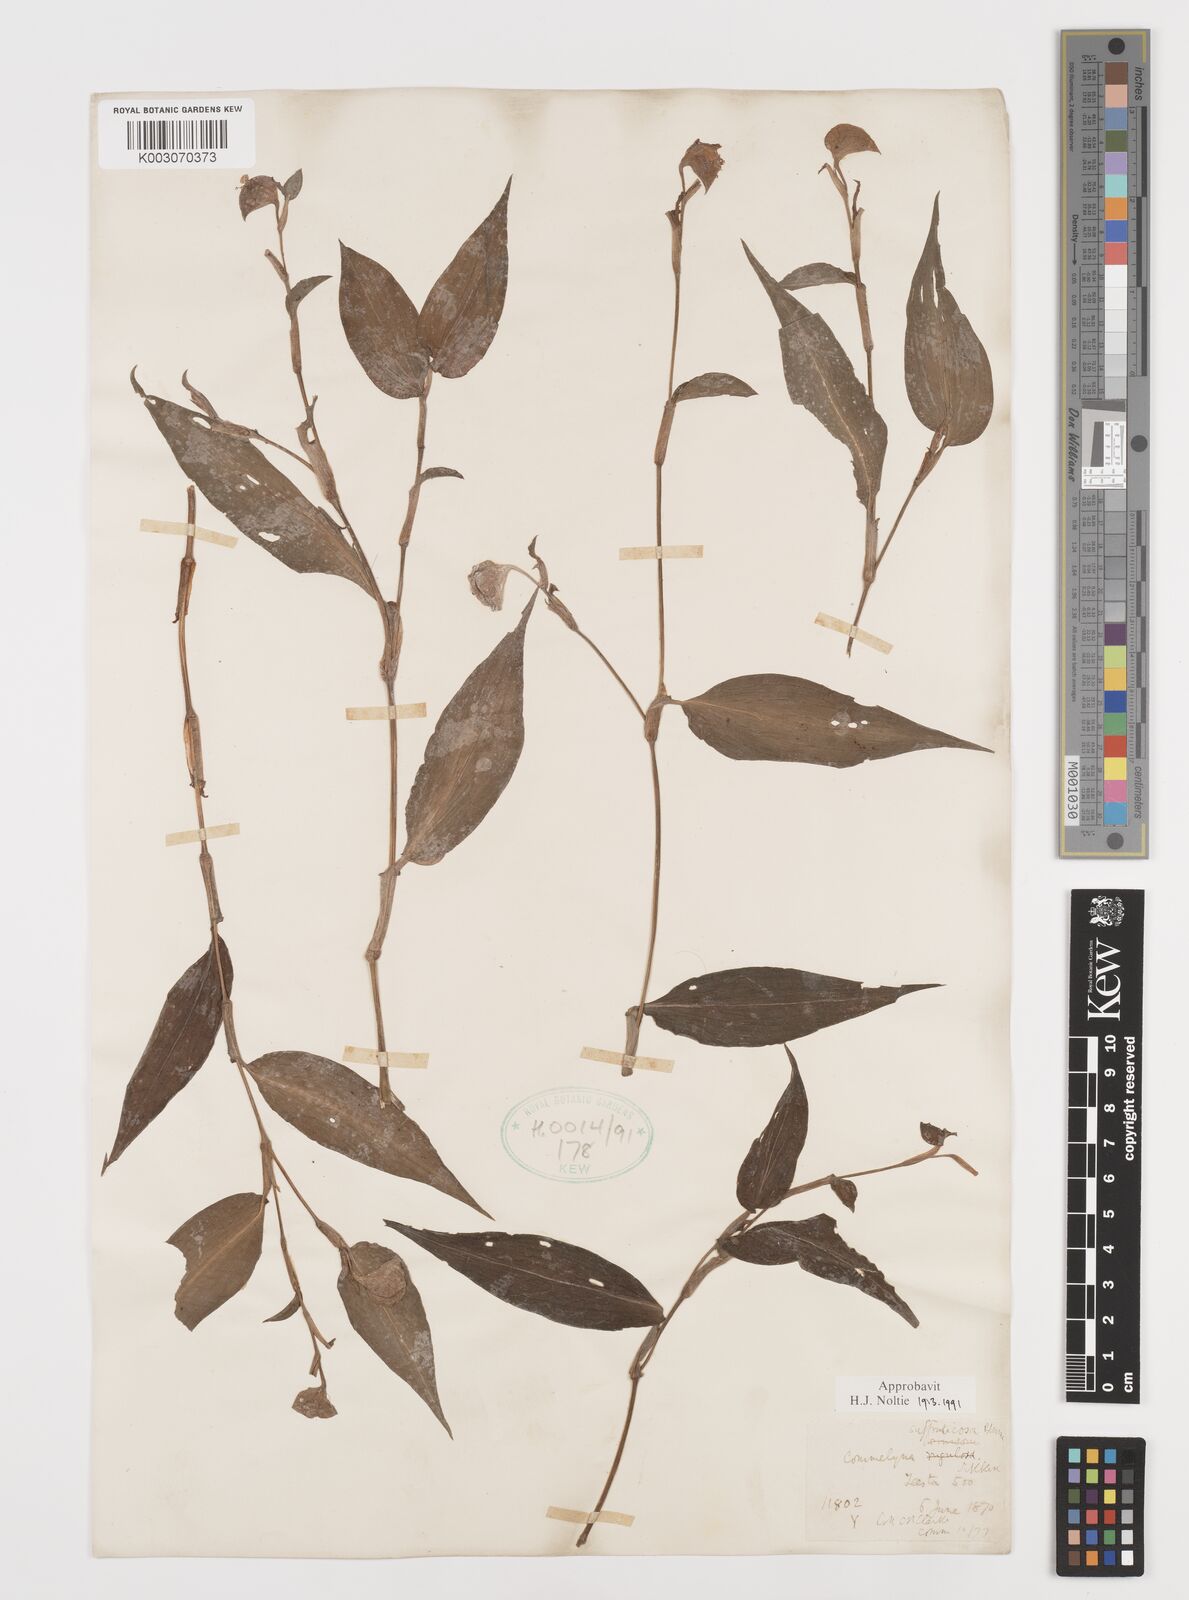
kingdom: Plantae
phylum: Tracheophyta
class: Liliopsida
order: Commelinales
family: Commelinaceae
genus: Commelina
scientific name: Commelina suffruticosa
